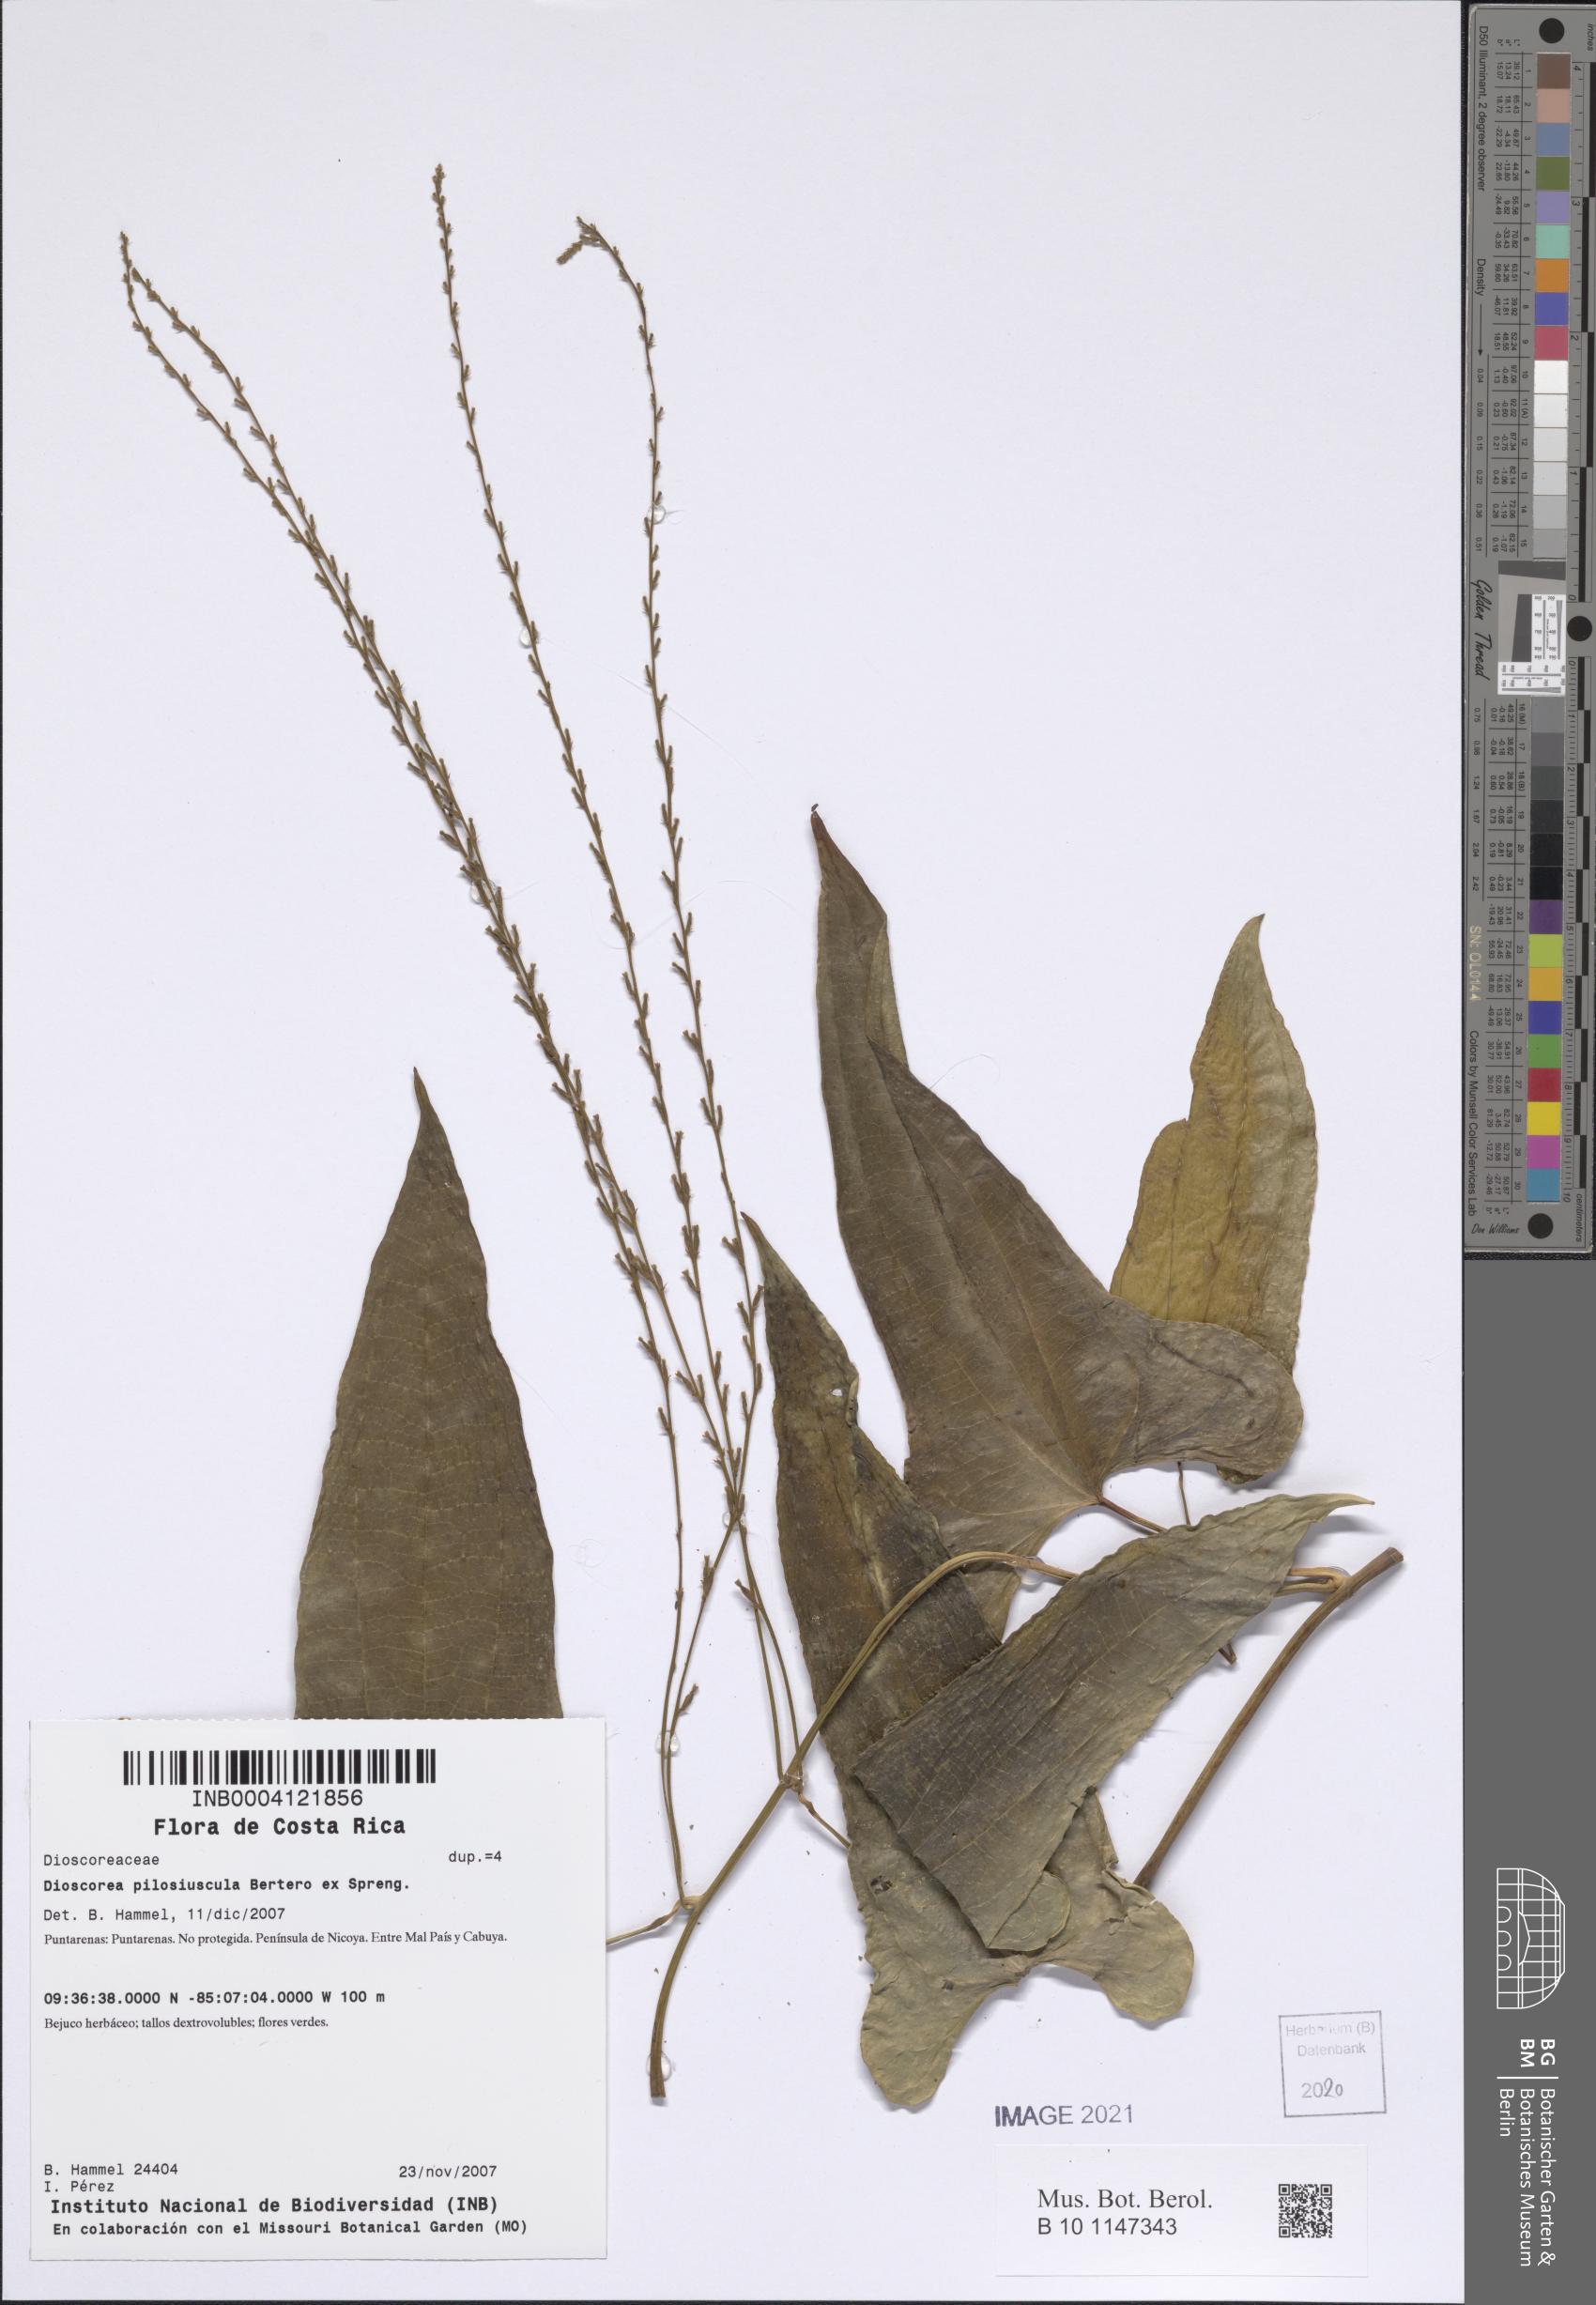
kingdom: Plantae
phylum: Tracheophyta
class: Liliopsida
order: Dioscoreales
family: Dioscoreaceae
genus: Dioscorea
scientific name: Dioscorea pilosiuscula
